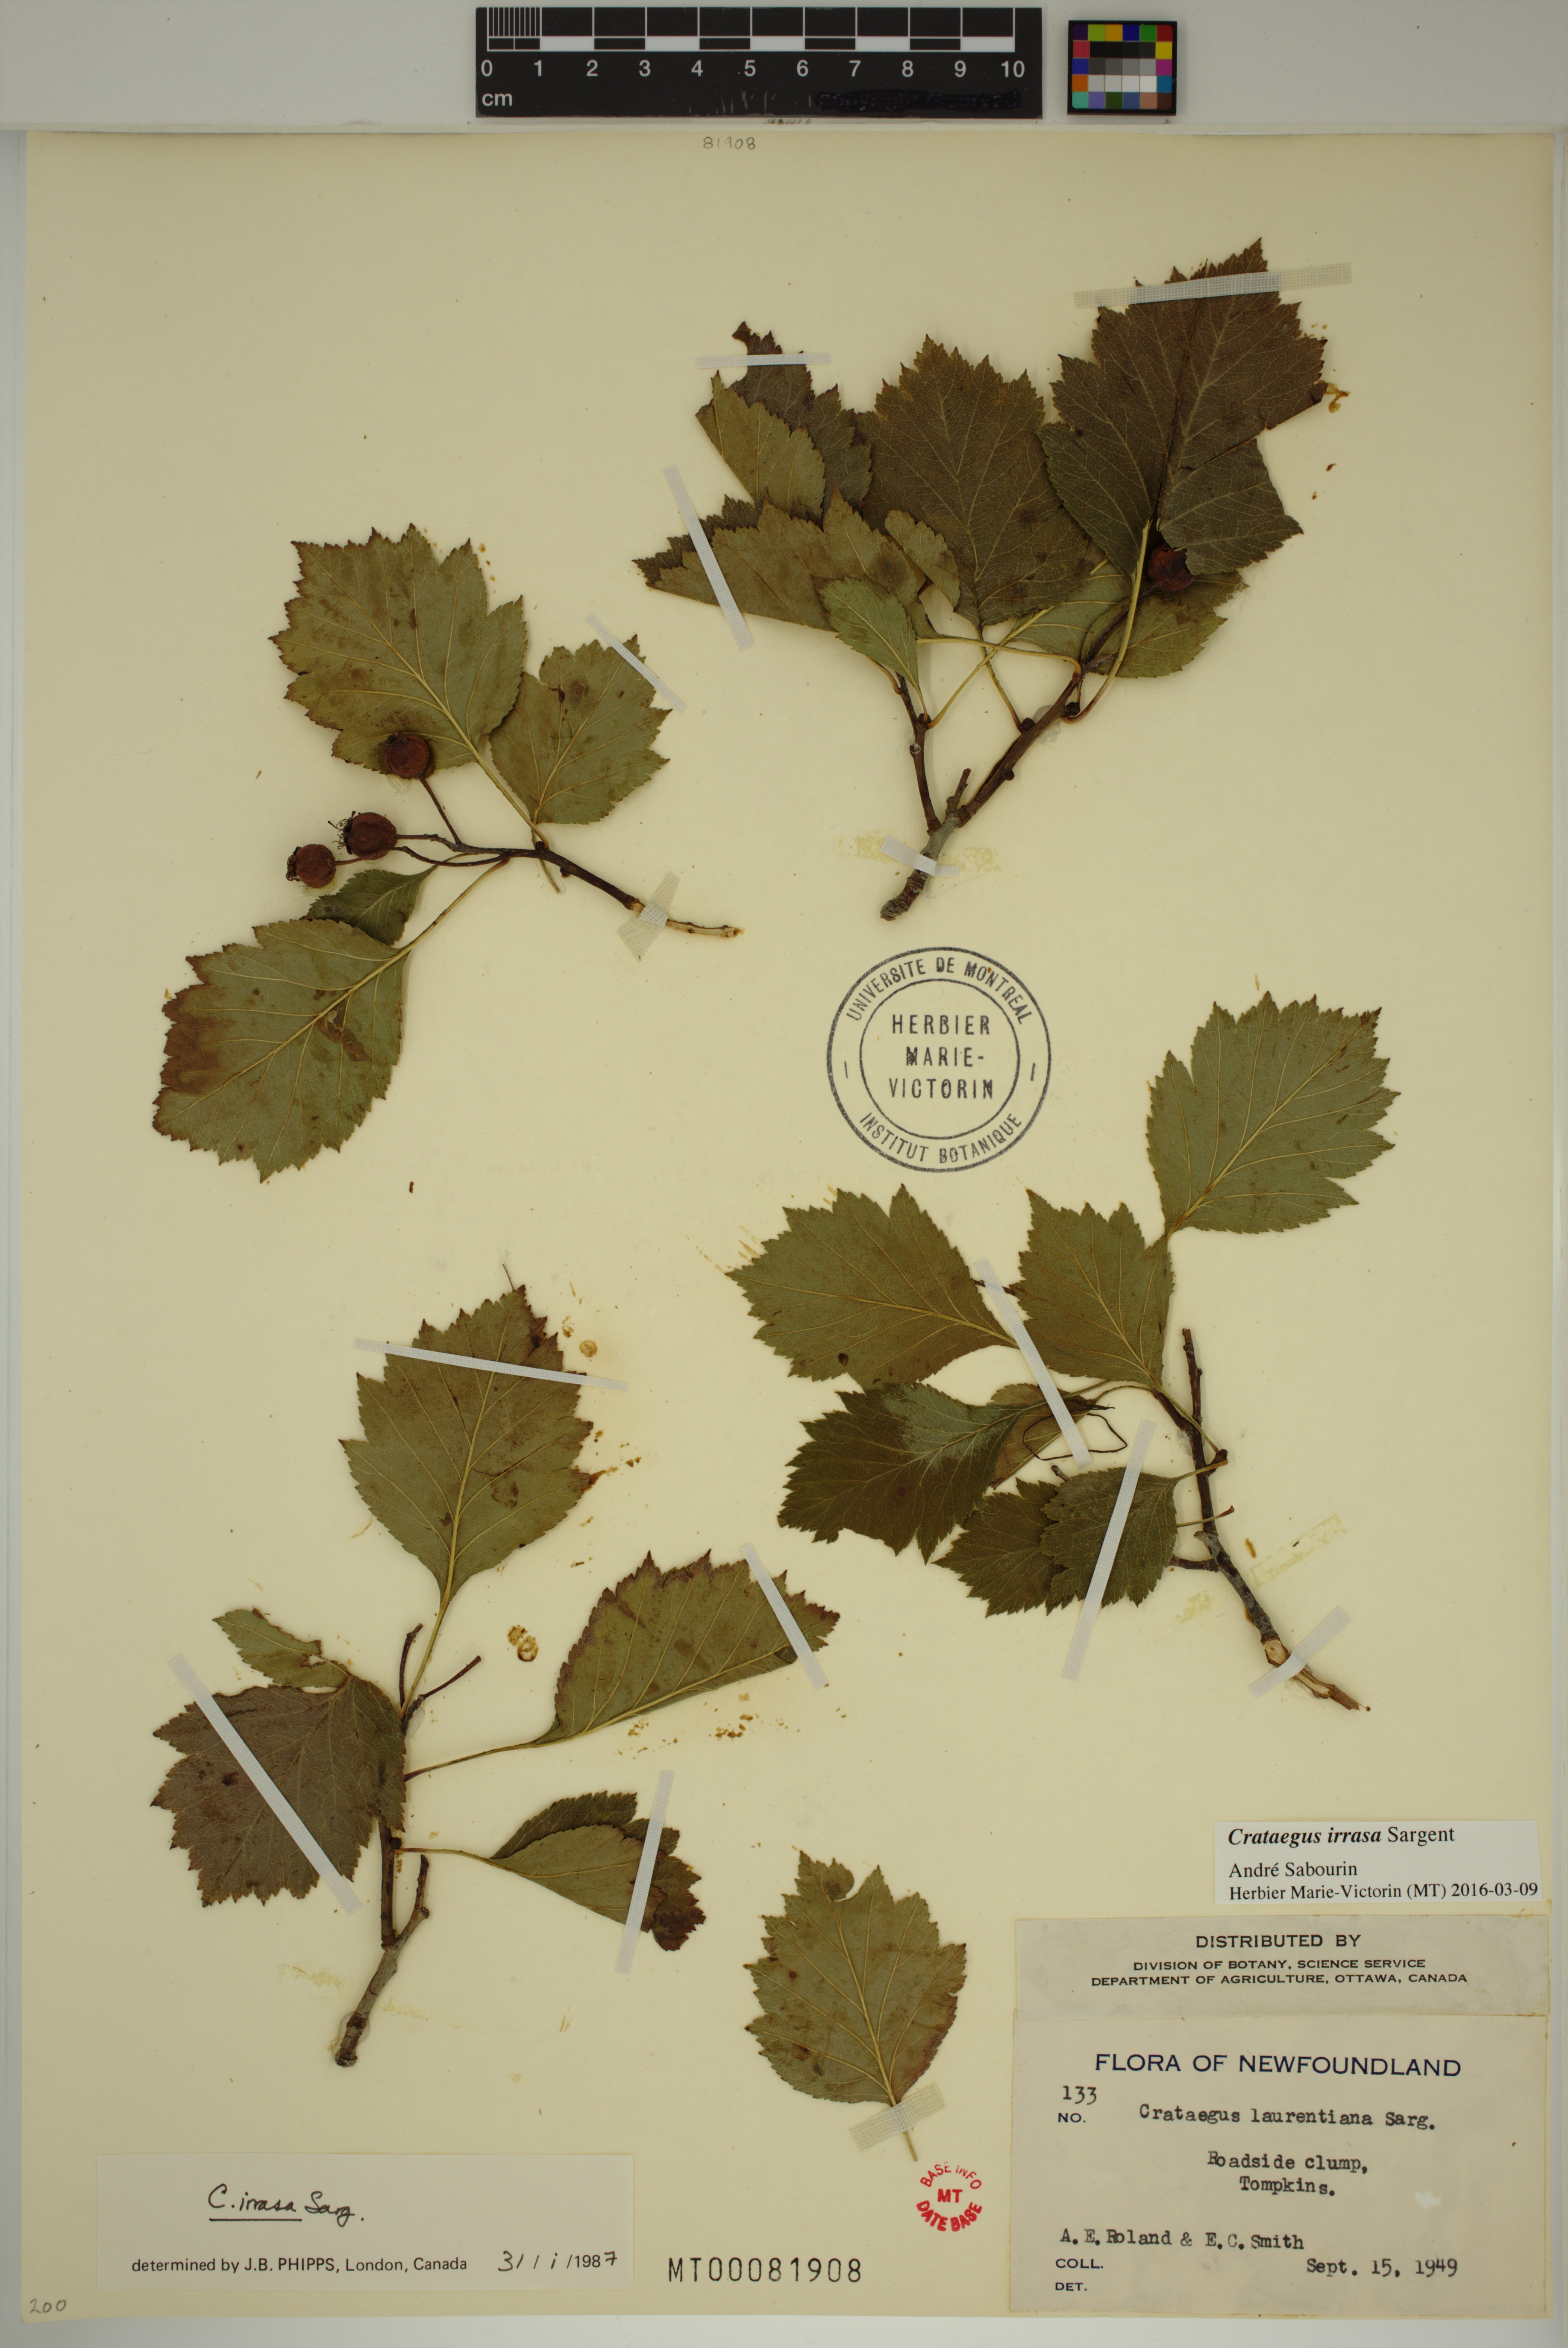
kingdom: Plantae
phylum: Tracheophyta
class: Magnoliopsida
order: Rosales
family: Rosaceae
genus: Crataegus
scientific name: Crataegus irrasa
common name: Unshorn hawthorn
